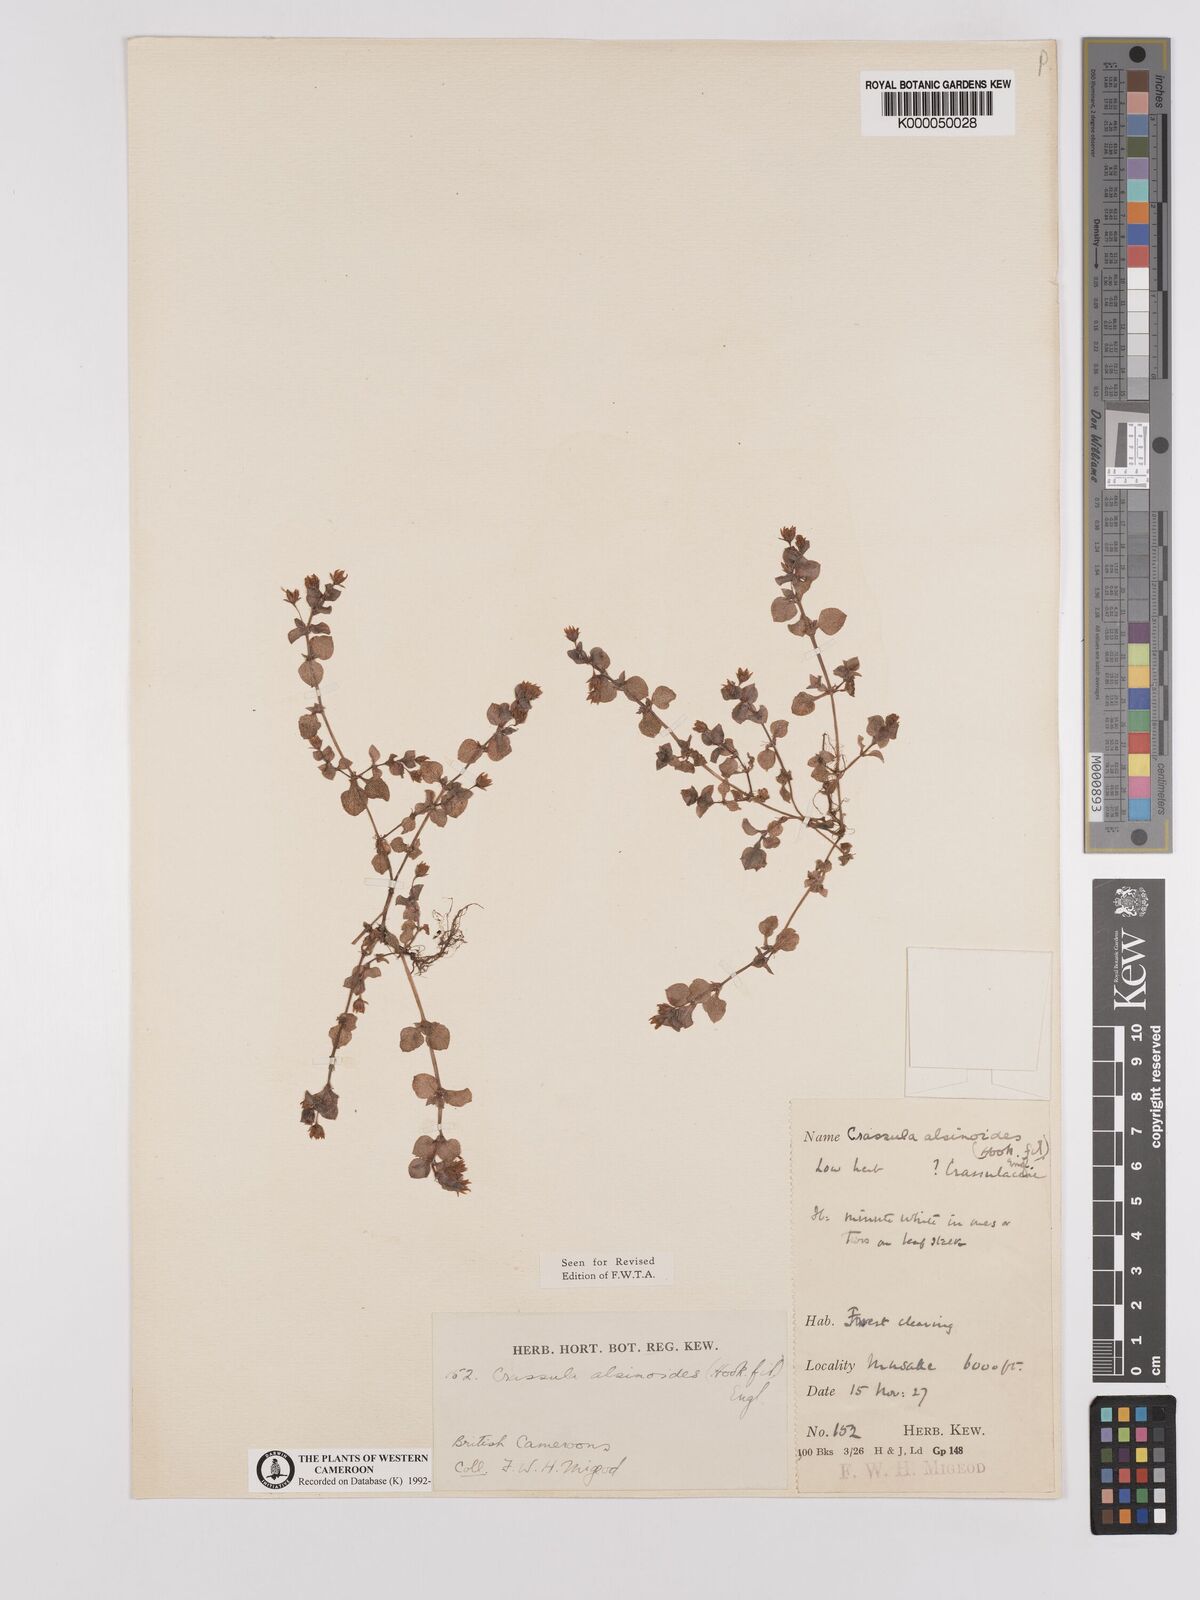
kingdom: Plantae
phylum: Tracheophyta
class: Magnoliopsida
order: Saxifragales
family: Crassulaceae
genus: Crassula
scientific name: Crassula alsinoides
